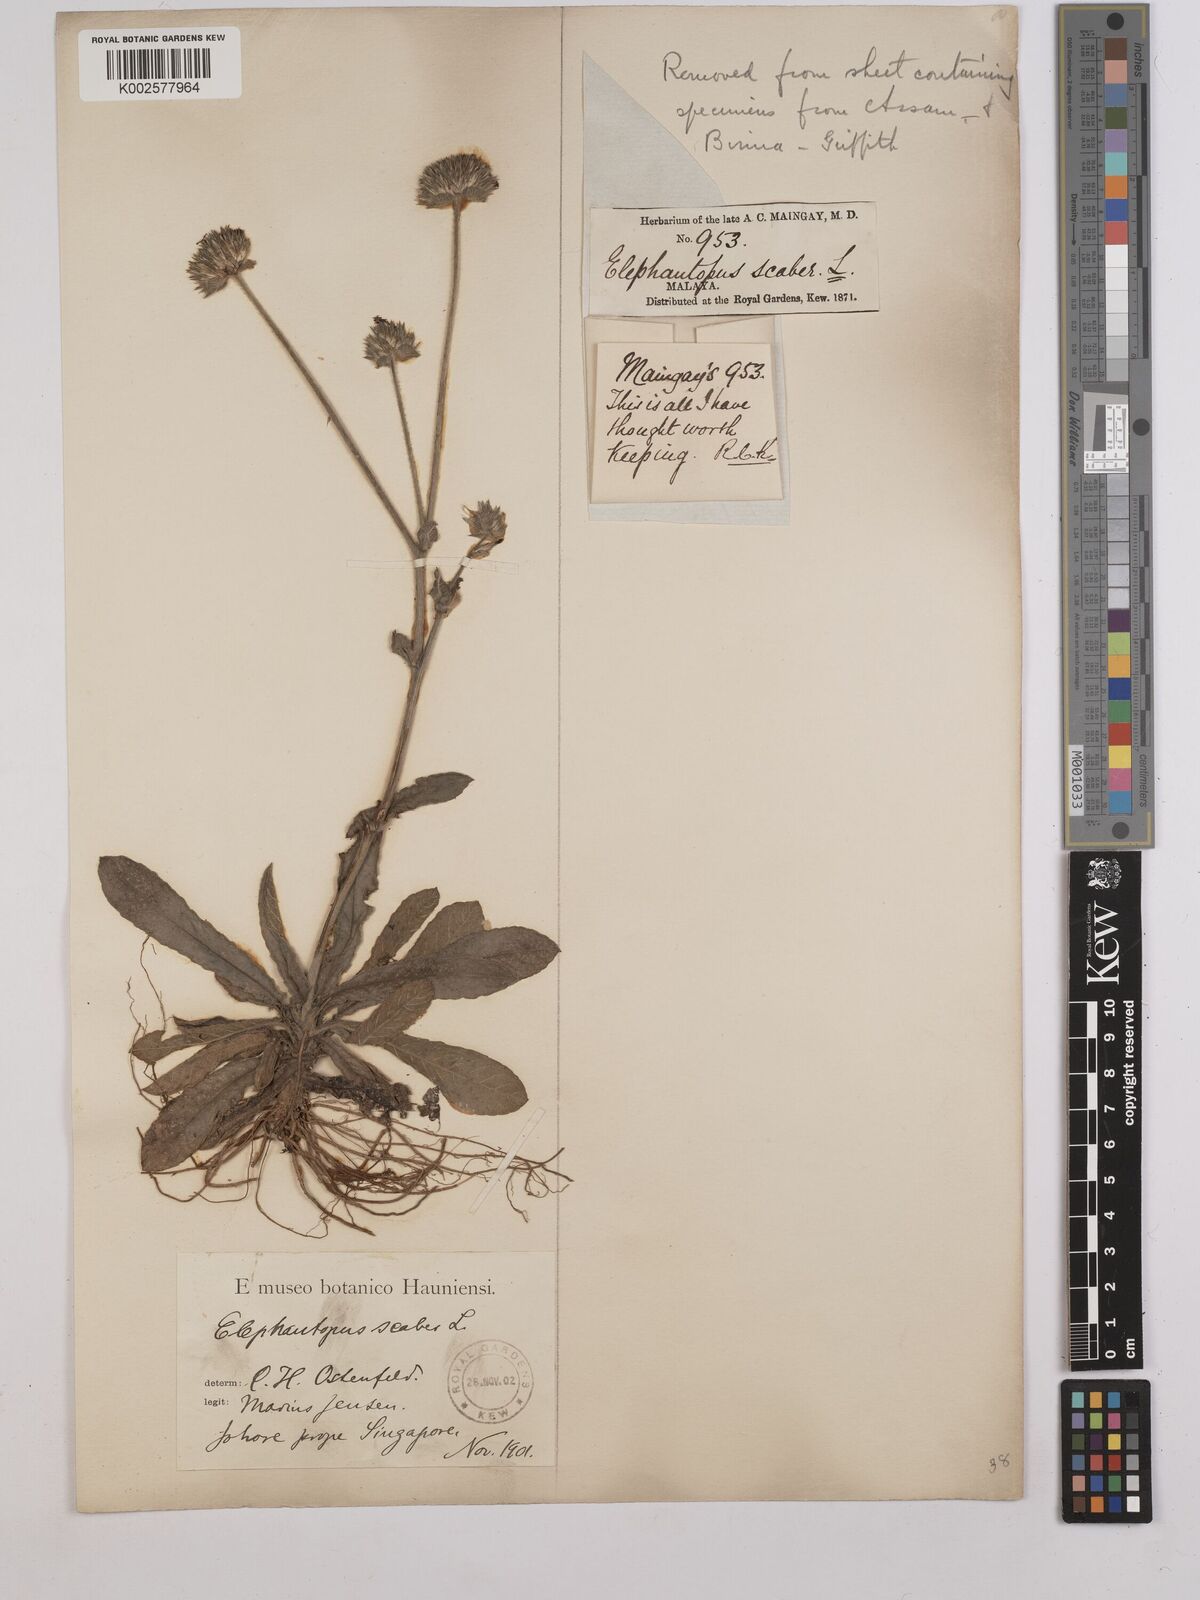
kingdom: Plantae
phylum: Tracheophyta
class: Magnoliopsida
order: Asterales
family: Asteraceae
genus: Elephantopus
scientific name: Elephantopus scaber
